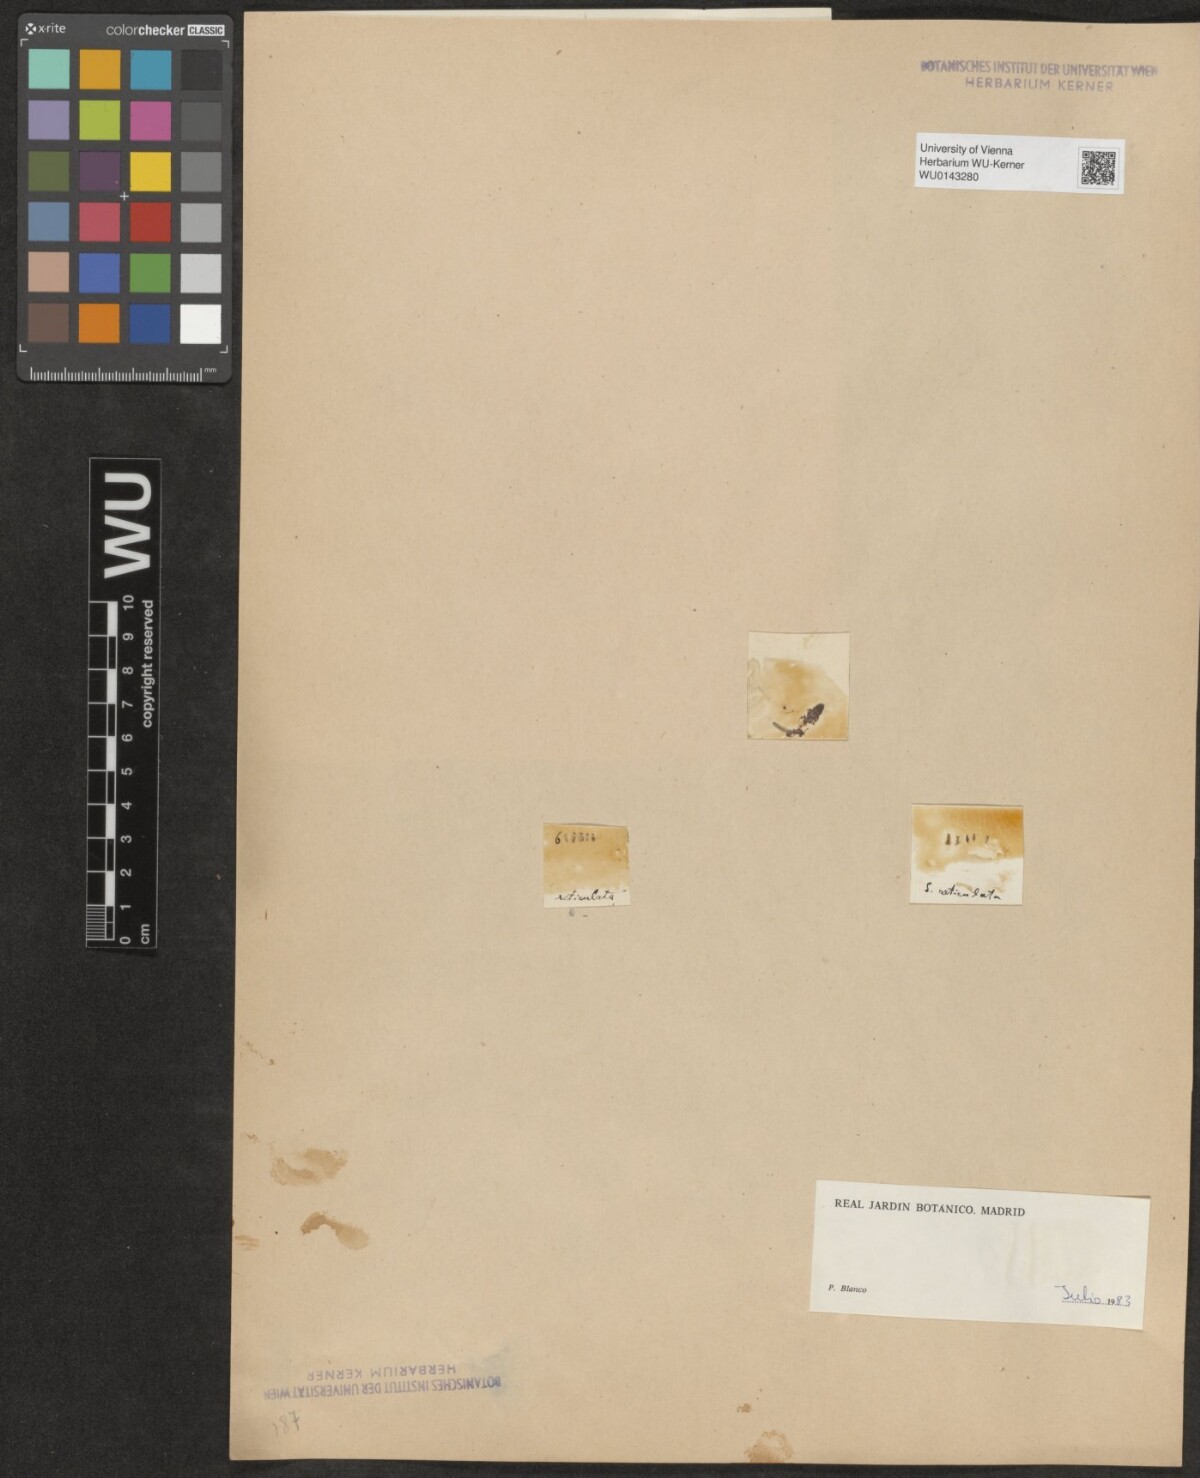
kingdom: Plantae
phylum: Tracheophyta
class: Magnoliopsida
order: Malpighiales
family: Salicaceae
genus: Salix
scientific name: Salix reticulata
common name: Net-leaved willow
